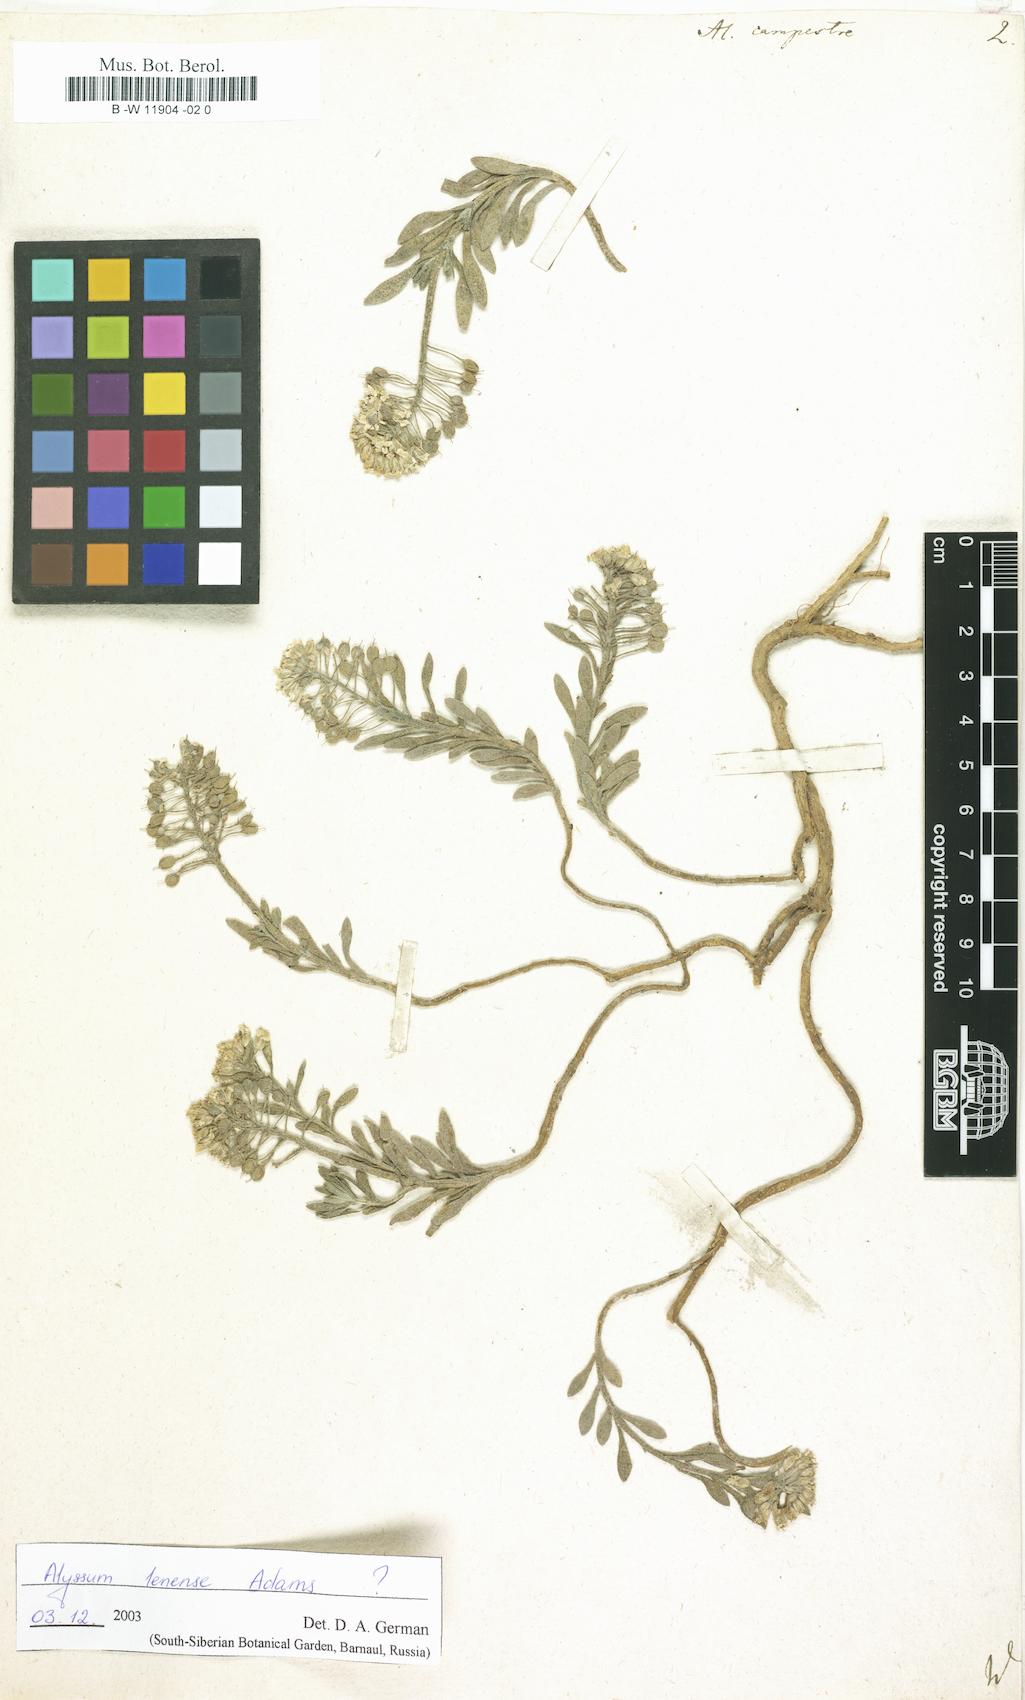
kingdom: Plantae
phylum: Tracheophyta
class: Magnoliopsida
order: Brassicales
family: Brassicaceae
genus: Alyssum
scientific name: Alyssum alyssoides
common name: Small alison
